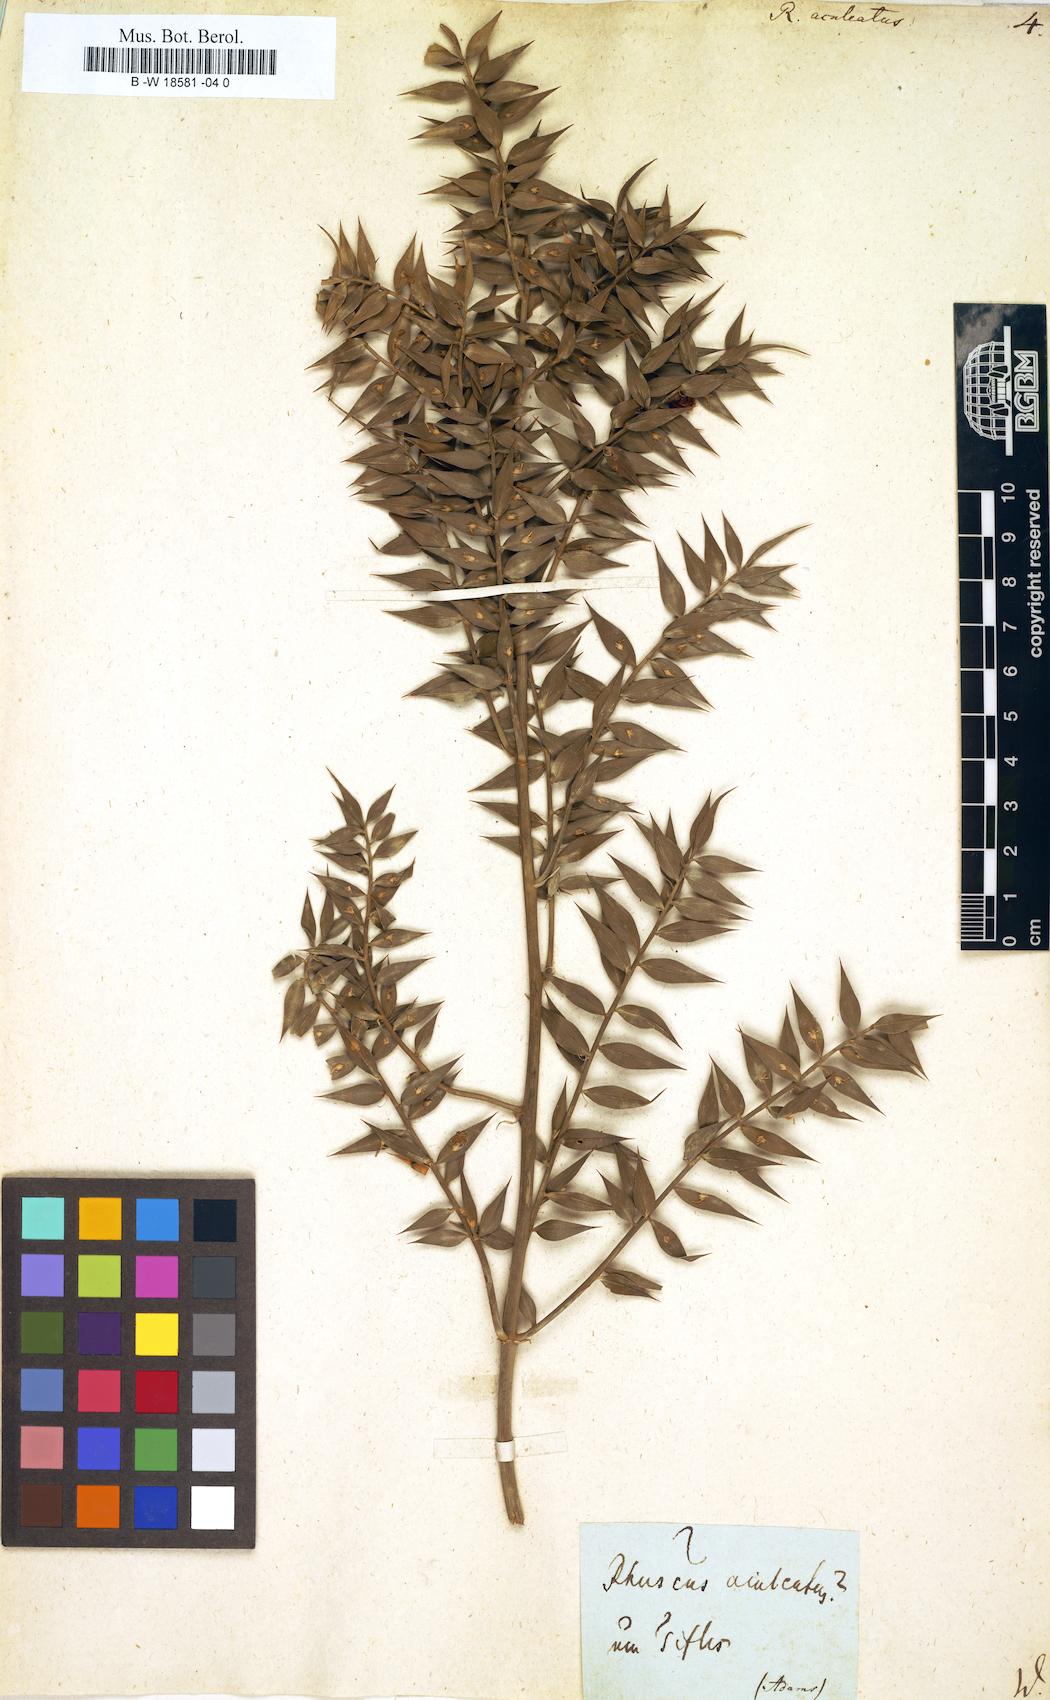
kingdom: Plantae
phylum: Tracheophyta
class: Liliopsida
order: Asparagales
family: Asparagaceae
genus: Ruscus
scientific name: Ruscus aculeatus
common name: Butcher's-broom
